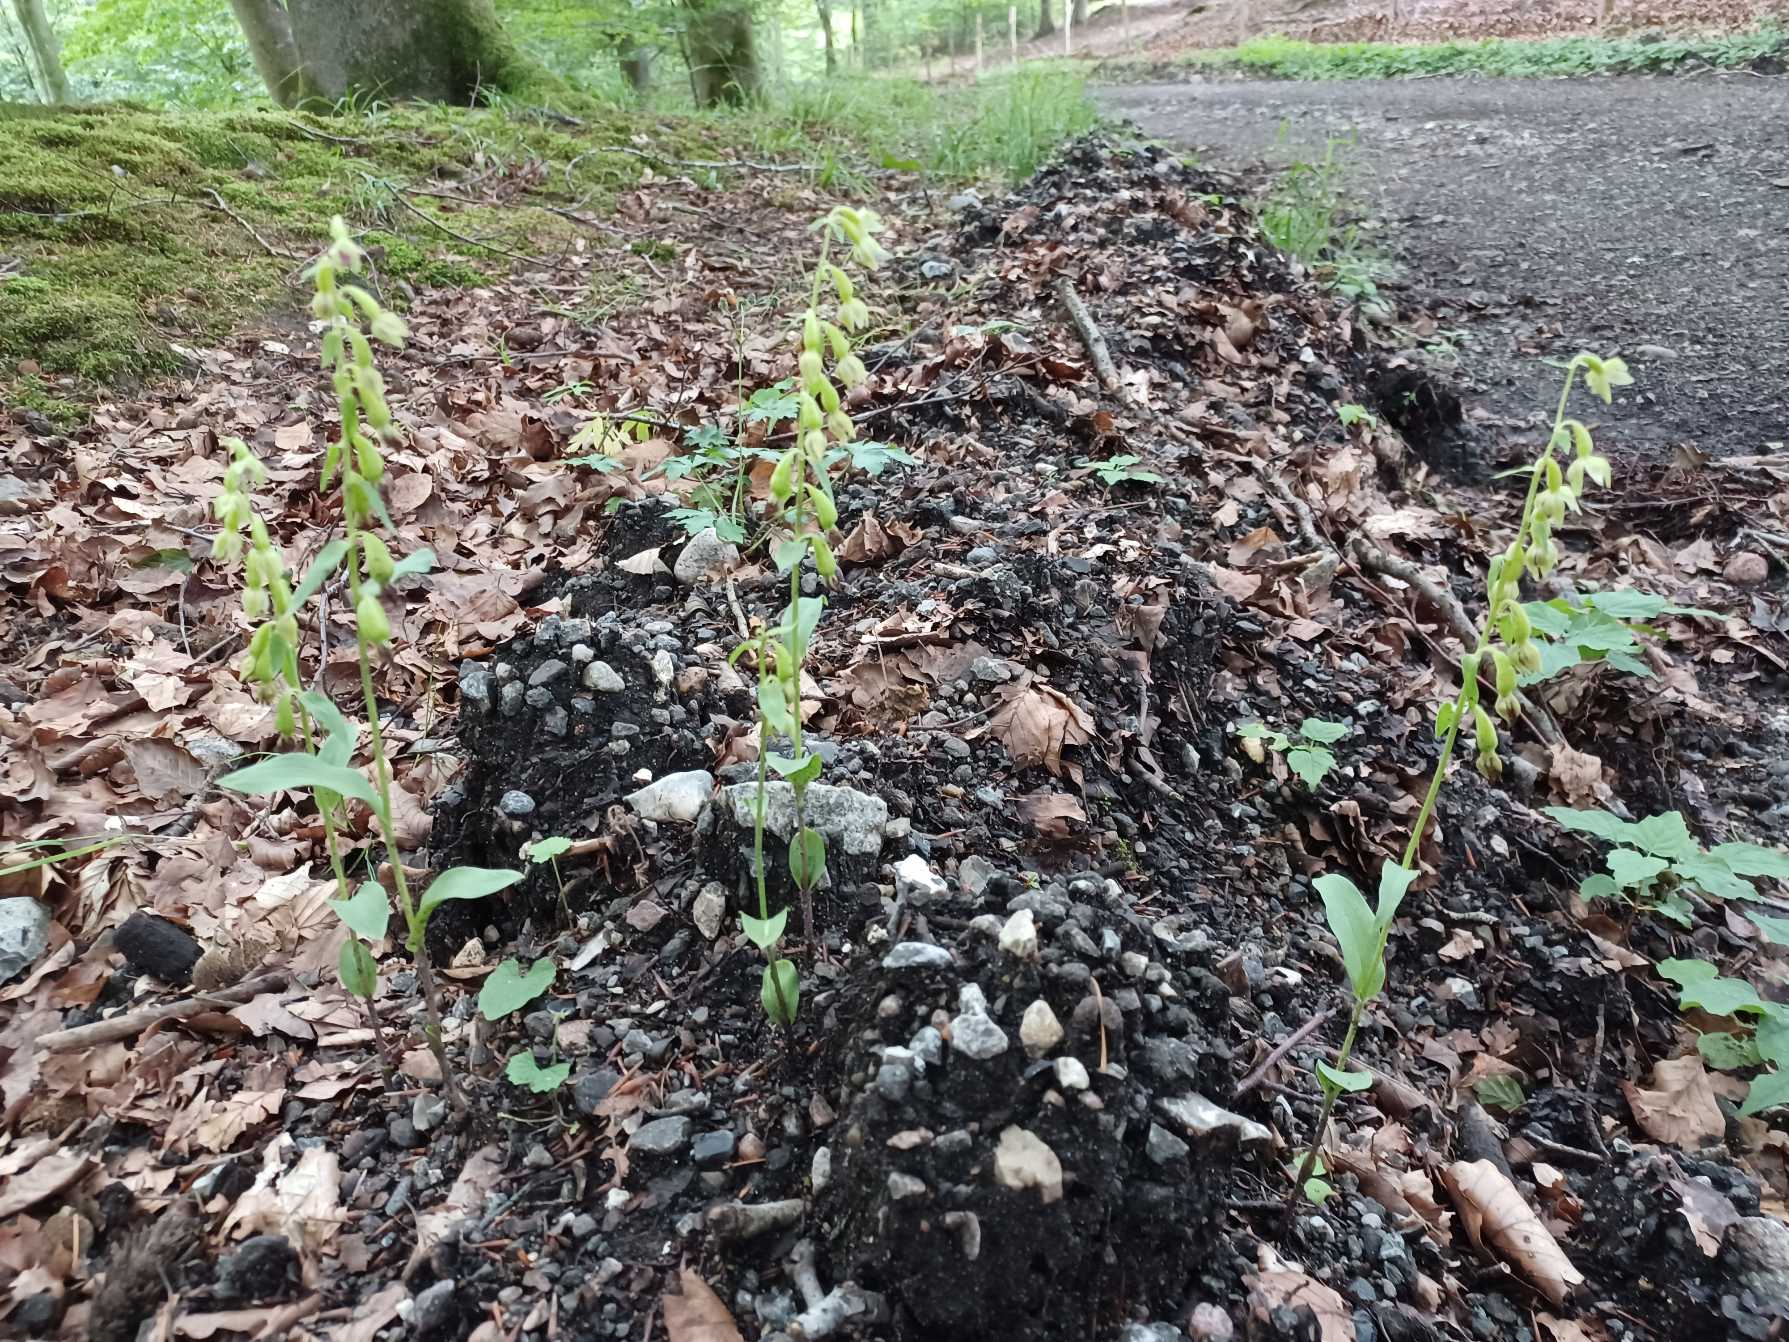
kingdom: Plantae
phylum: Tracheophyta
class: Liliopsida
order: Asparagales
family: Orchidaceae
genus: Epipactis
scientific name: Epipactis phyllanthes
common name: Nikkende hullæbe
